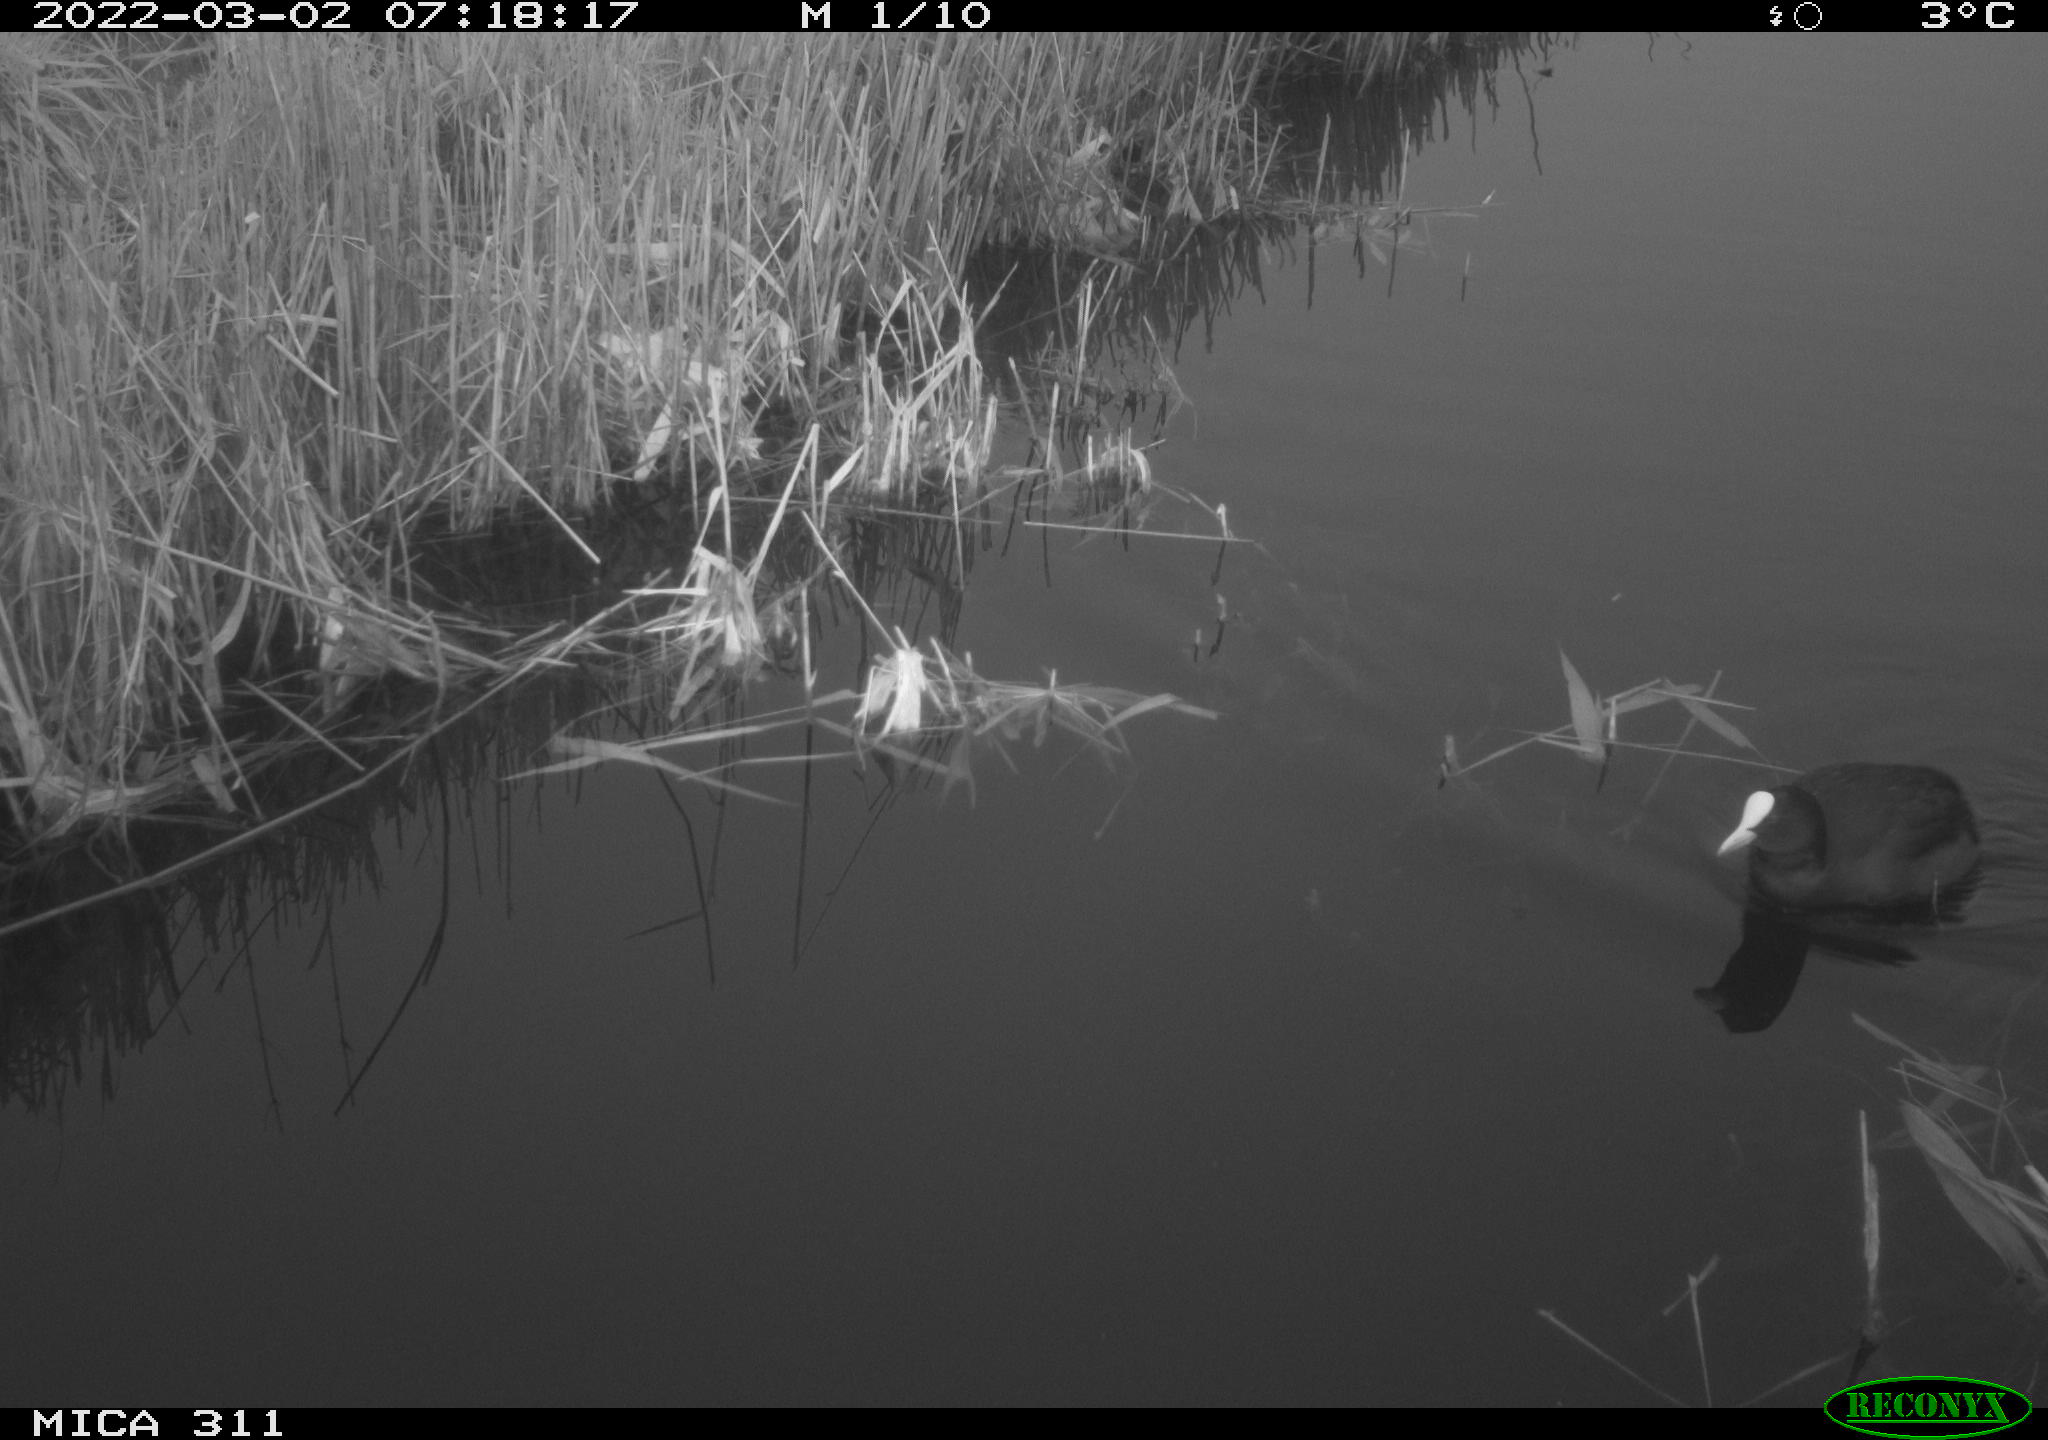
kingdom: Animalia
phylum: Chordata
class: Aves
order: Gruiformes
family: Rallidae
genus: Gallinula
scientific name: Gallinula chloropus
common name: Common moorhen
